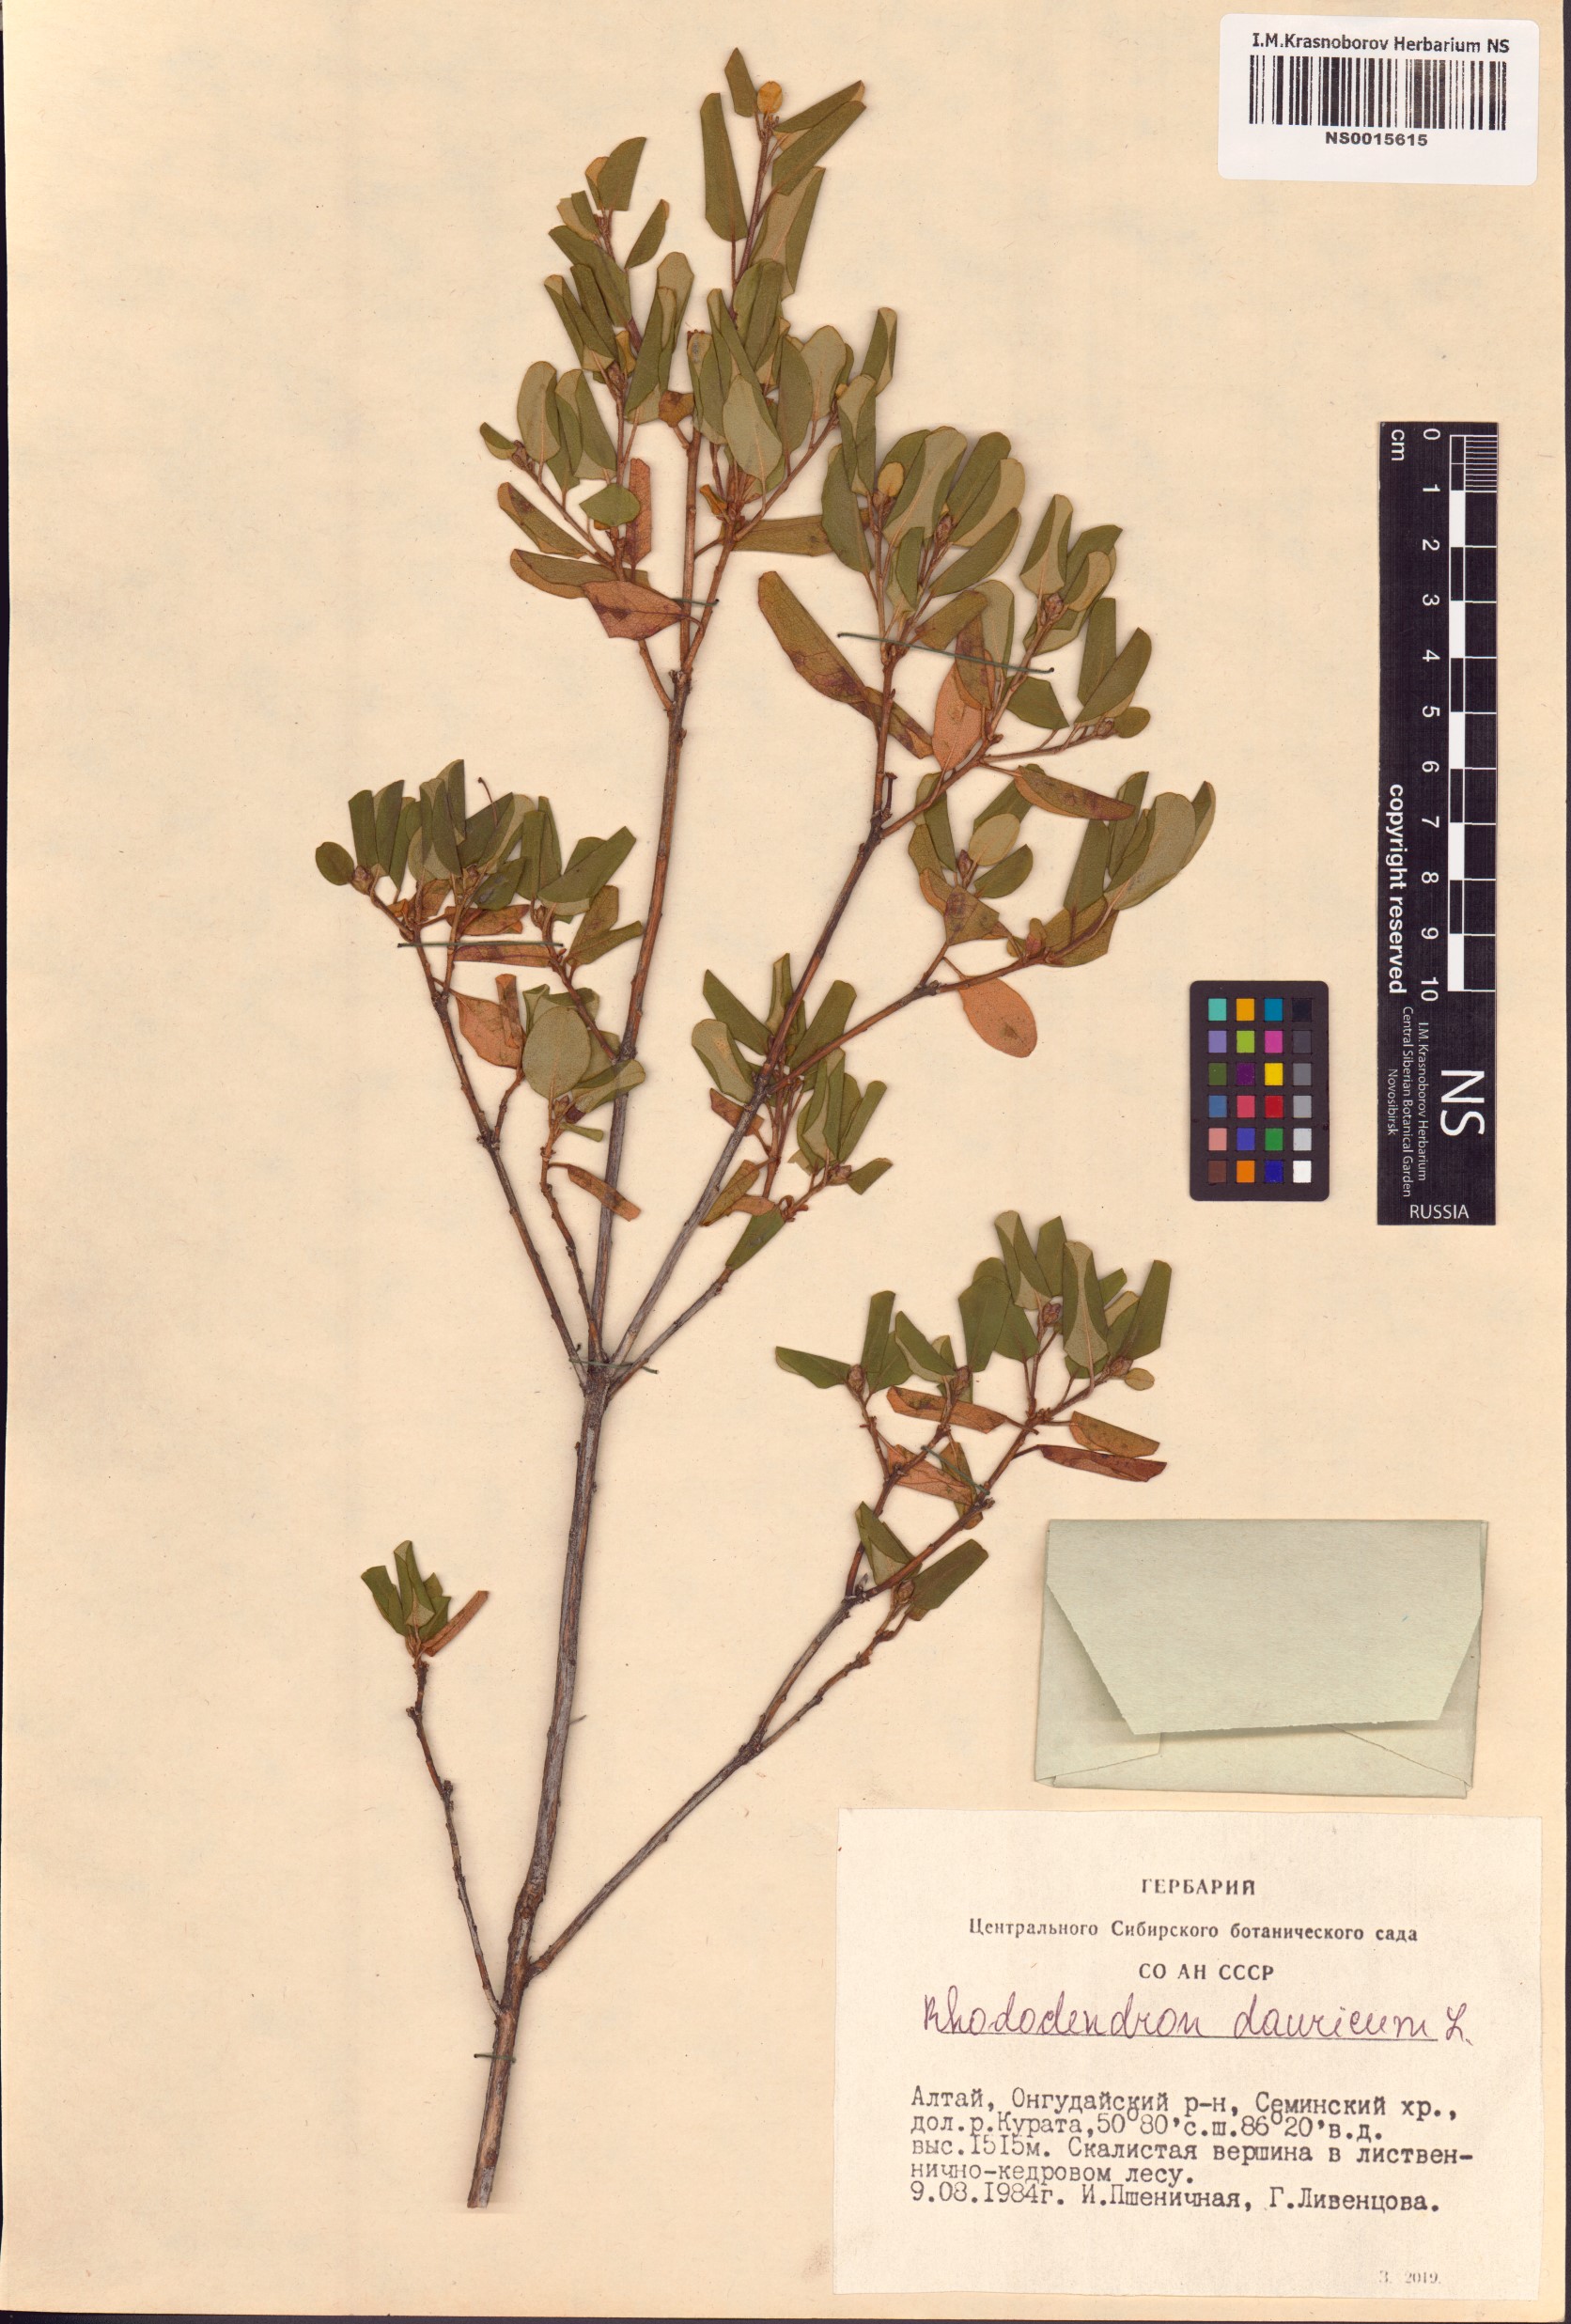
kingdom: Plantae
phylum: Tracheophyta
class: Magnoliopsida
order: Ericales
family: Ericaceae
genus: Rhododendron
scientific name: Rhododendron dauricum
